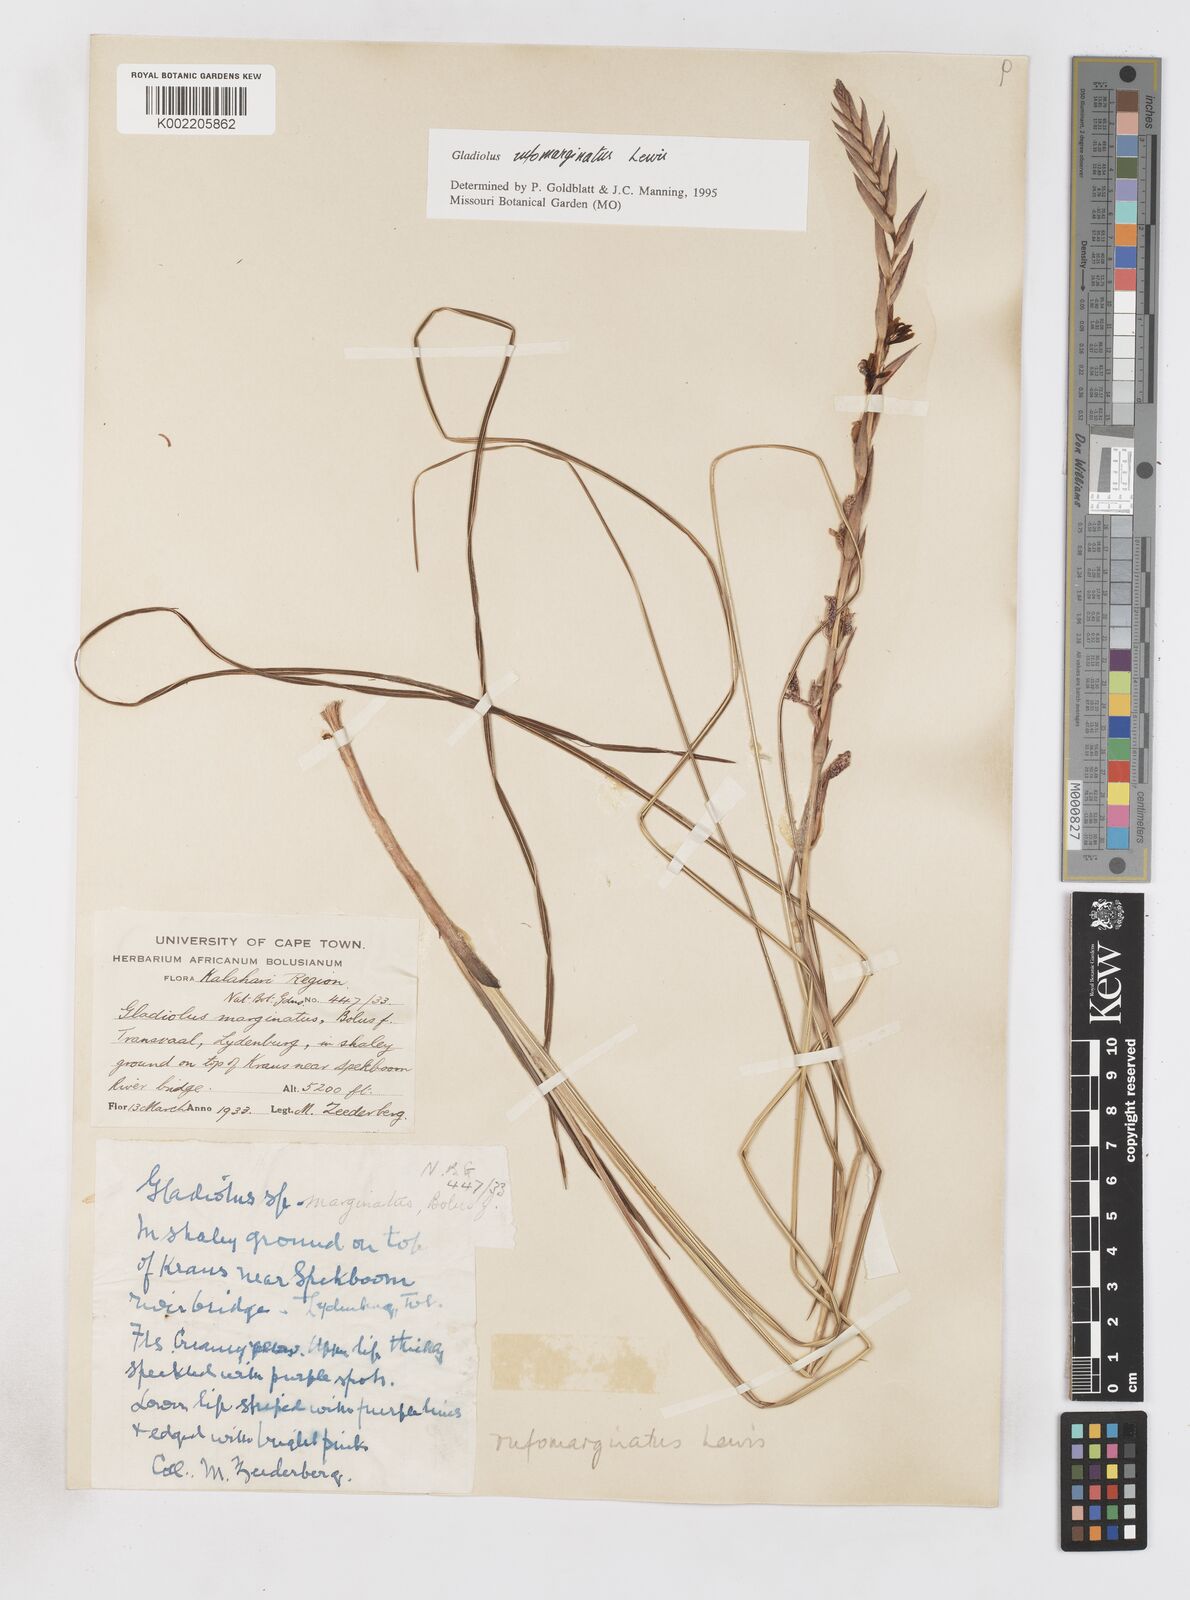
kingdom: Plantae
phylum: Tracheophyta
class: Liliopsida
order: Asparagales
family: Iridaceae
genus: Gladiolus
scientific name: Gladiolus rufomarginatus
